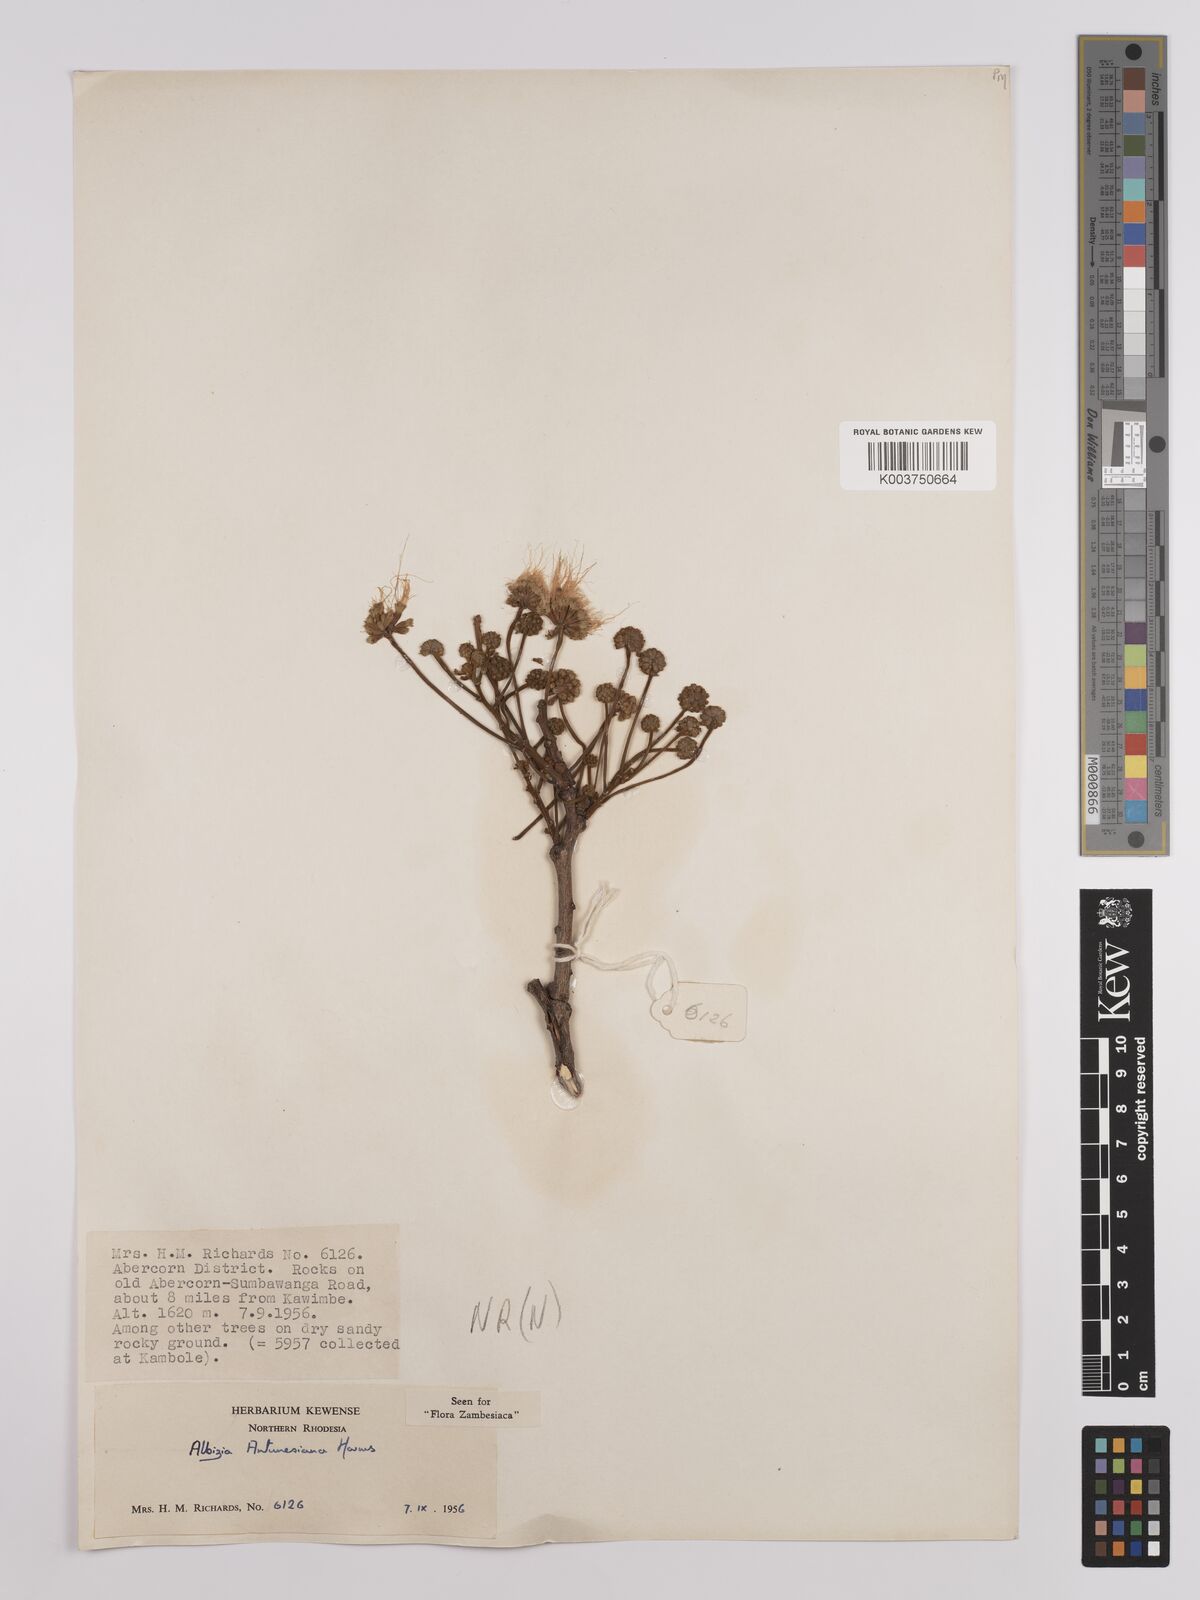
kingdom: Plantae
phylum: Tracheophyta
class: Magnoliopsida
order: Fabales
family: Fabaceae
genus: Albizia
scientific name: Albizia antunesiana
